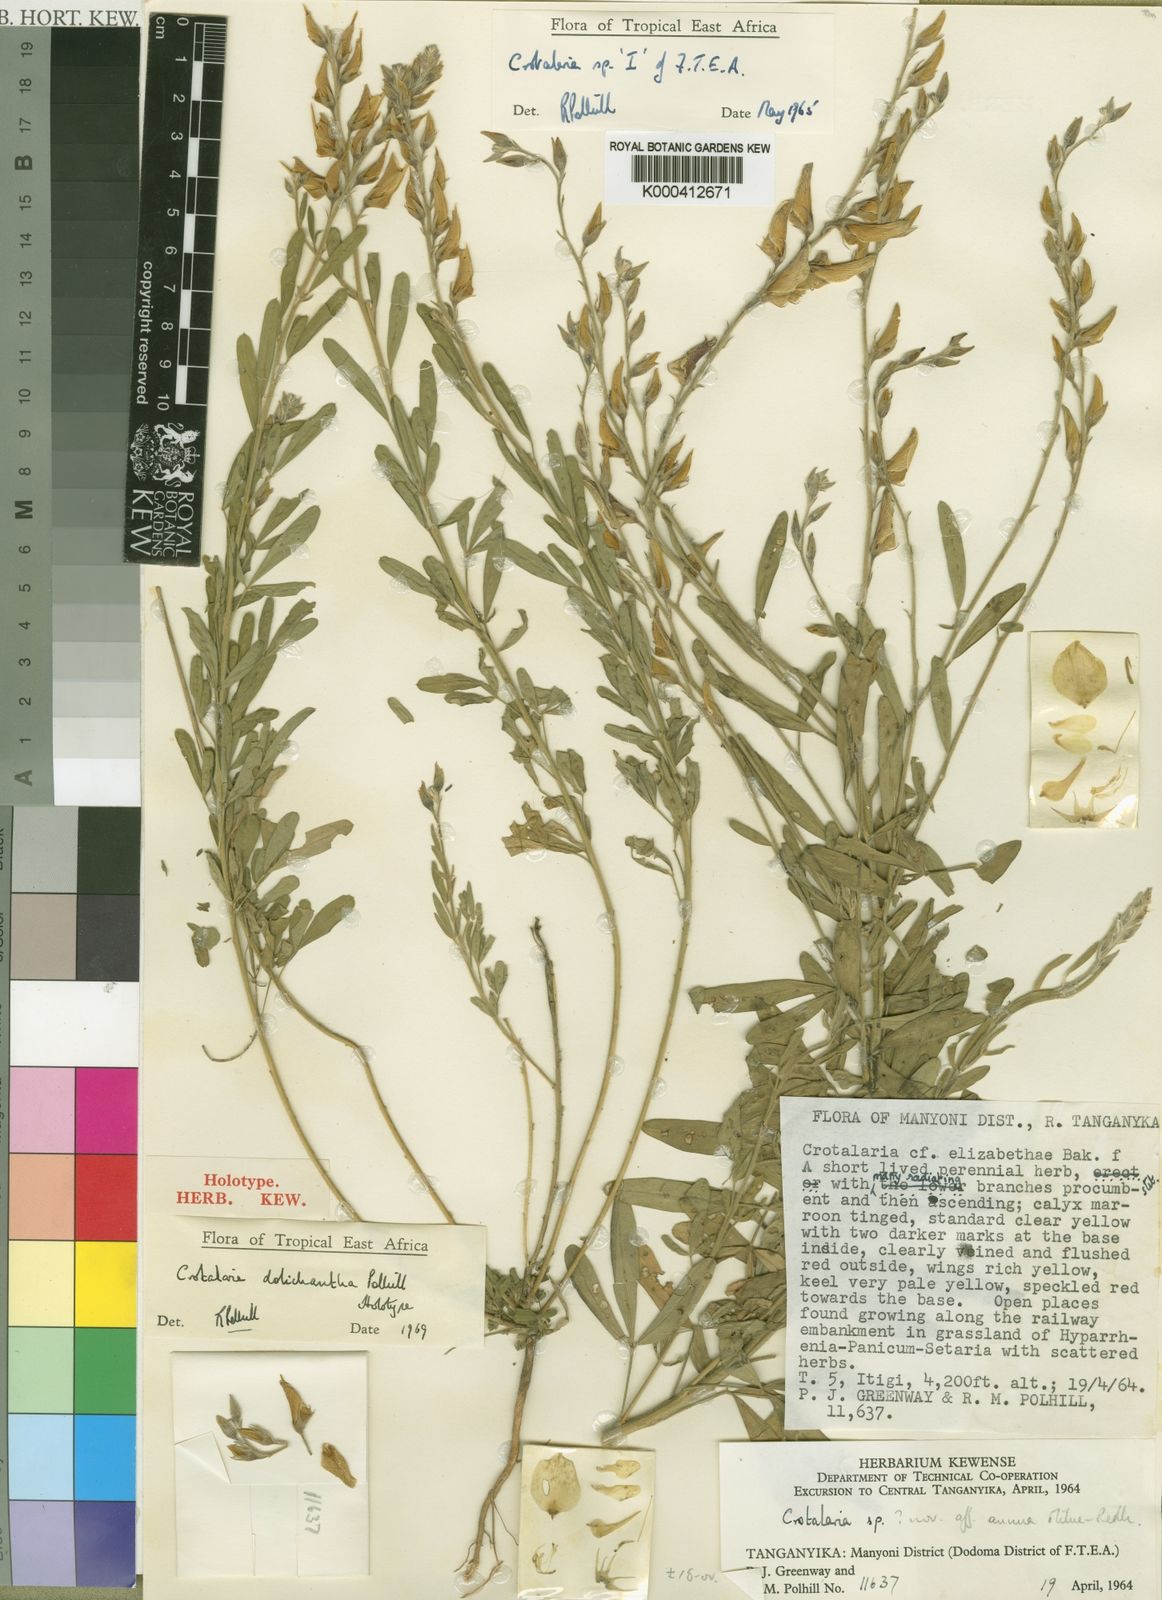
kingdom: Plantae
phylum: Tracheophyta
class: Magnoliopsida
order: Fabales
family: Fabaceae
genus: Crotalaria
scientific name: Crotalaria dolichantha
